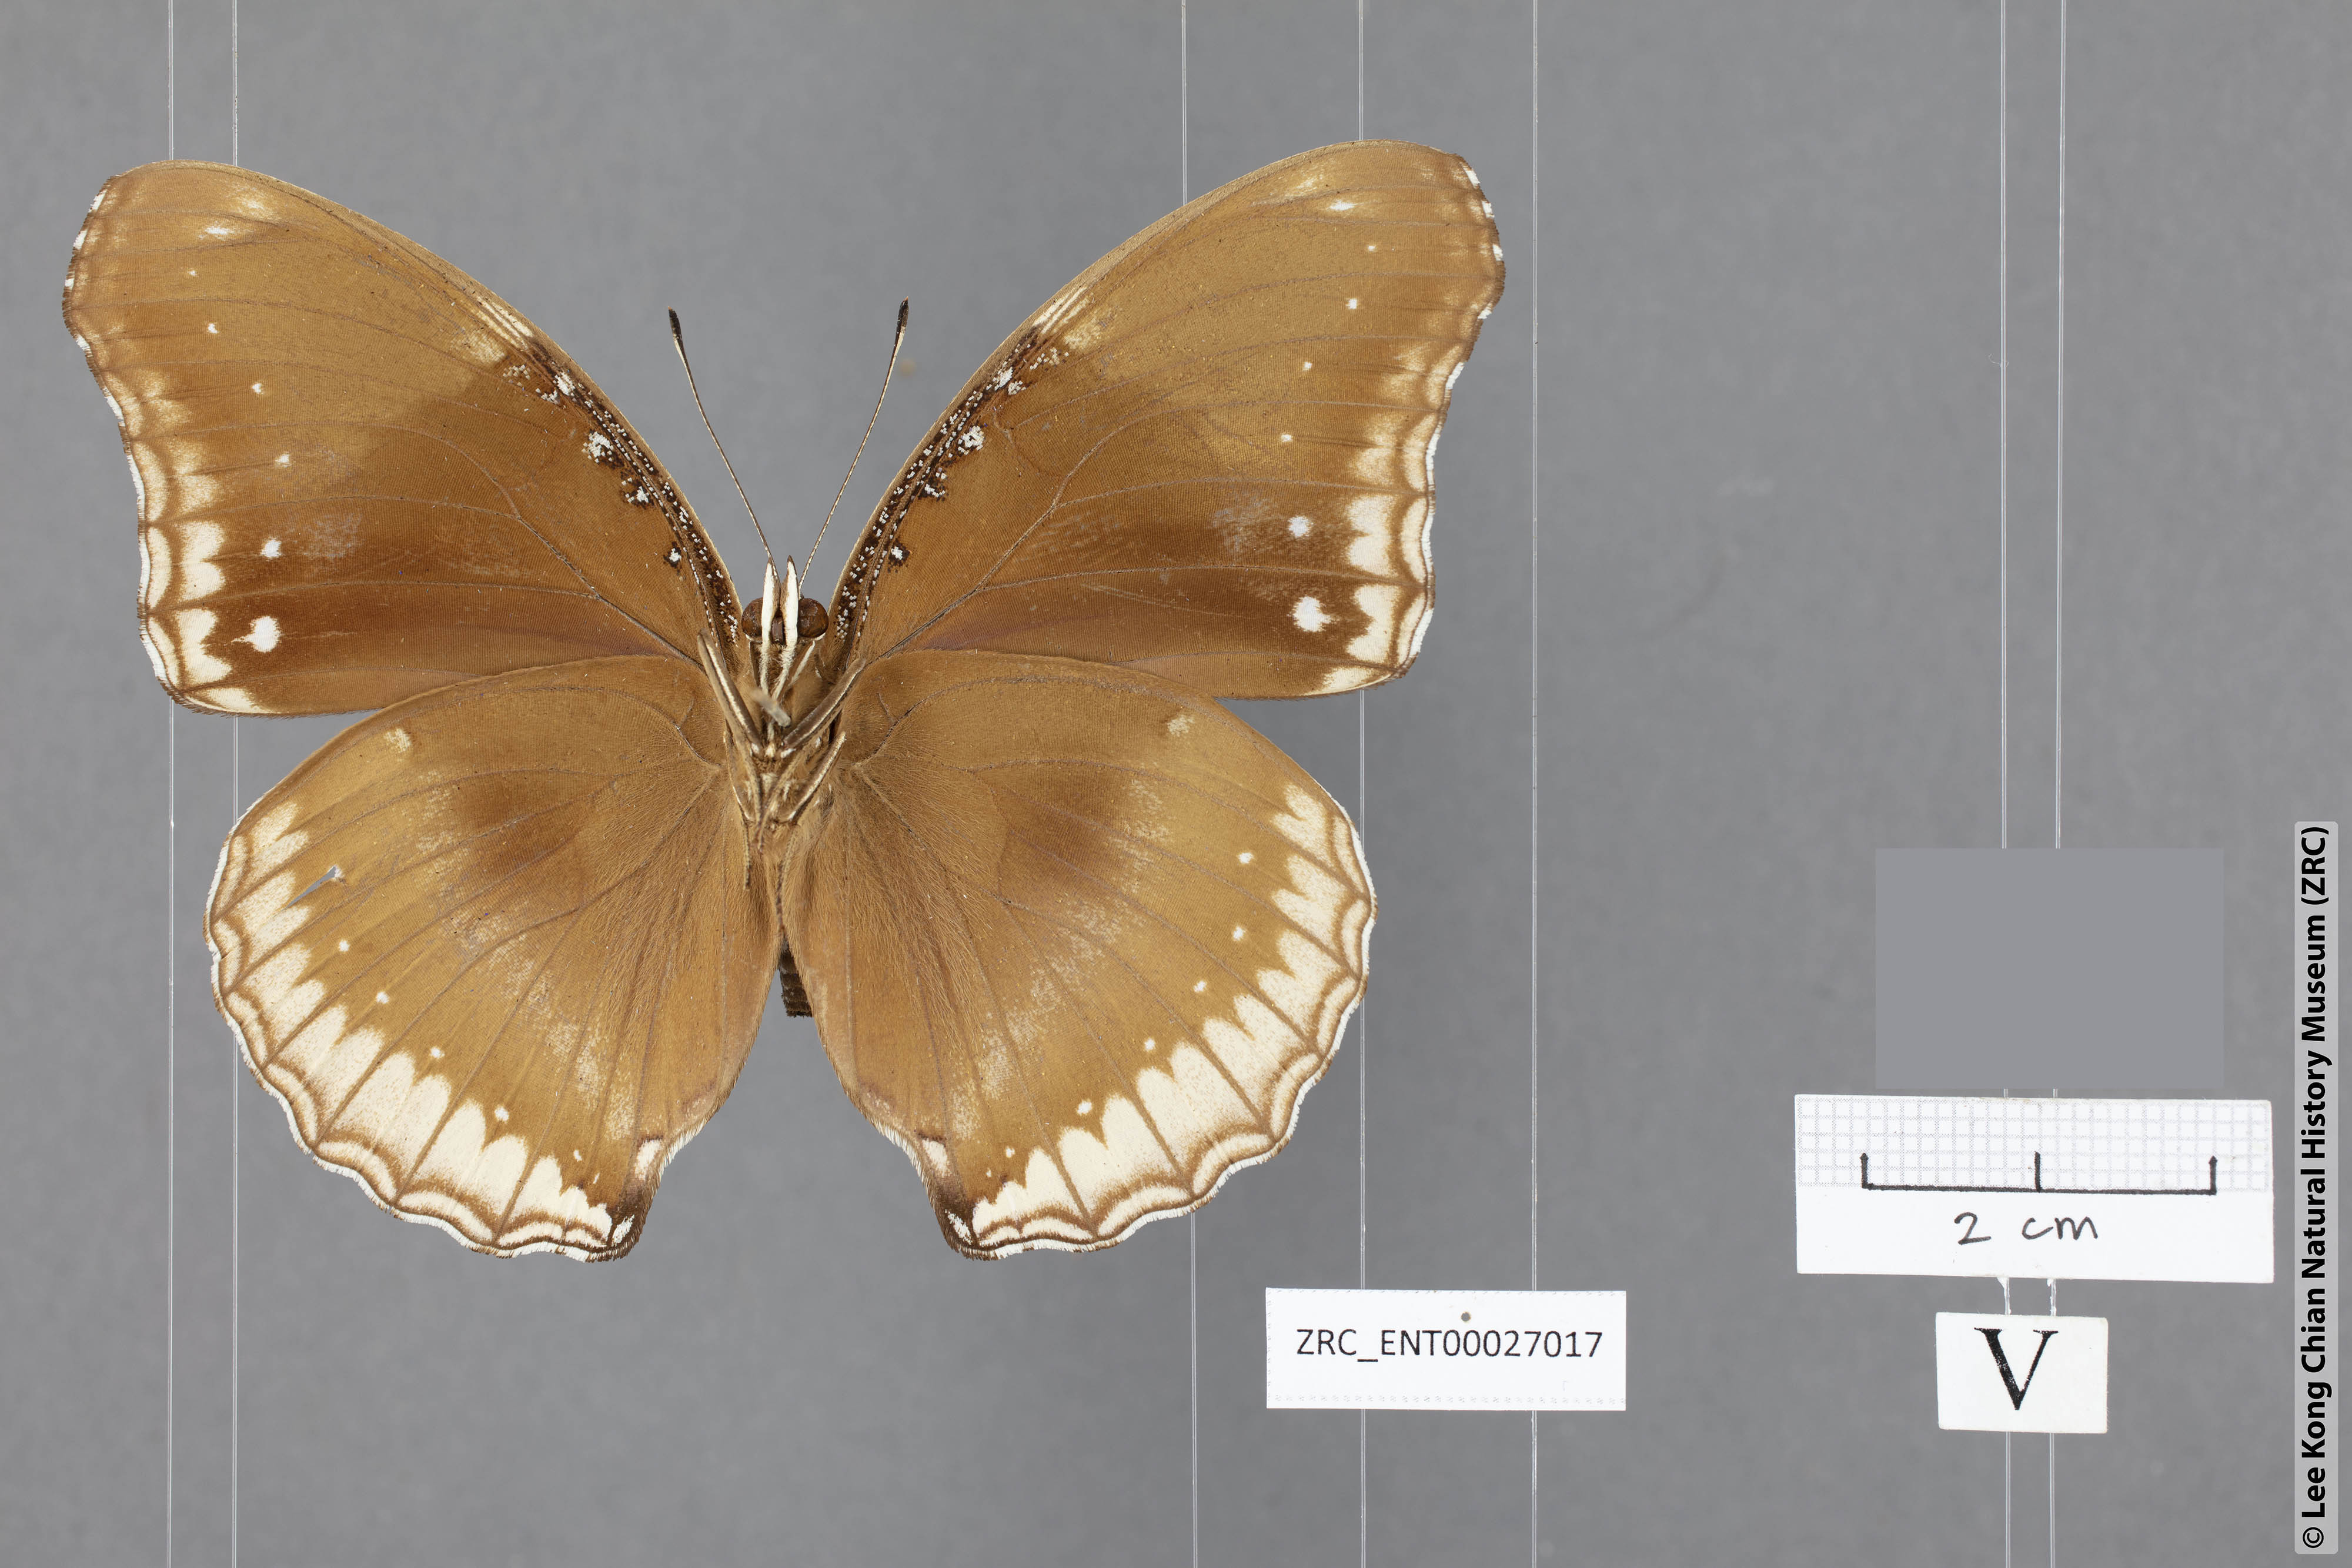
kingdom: Animalia
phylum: Arthropoda
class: Insecta
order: Lepidoptera
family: Nymphalidae
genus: Hypolimnas
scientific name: Hypolimnas bolina
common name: Great eggfly
